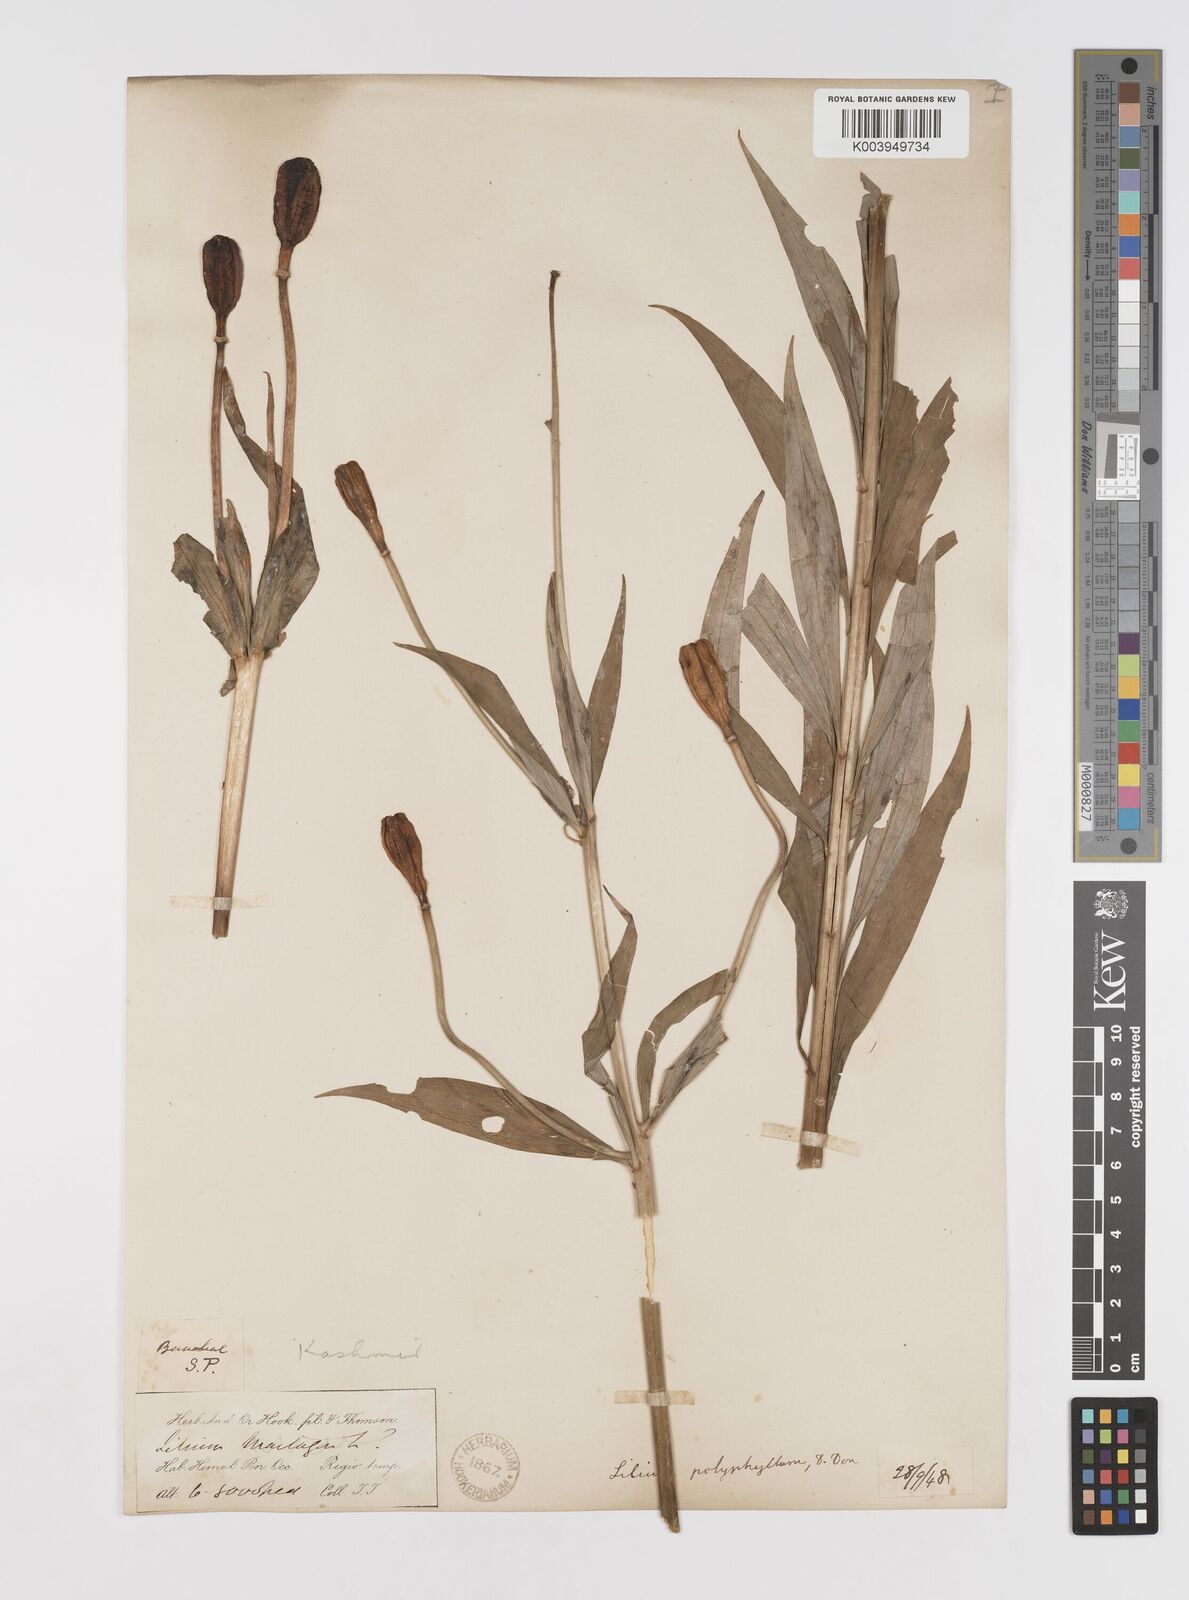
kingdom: Plantae
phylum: Tracheophyta
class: Liliopsida
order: Liliales
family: Liliaceae
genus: Lilium
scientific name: Lilium polyphyllum
